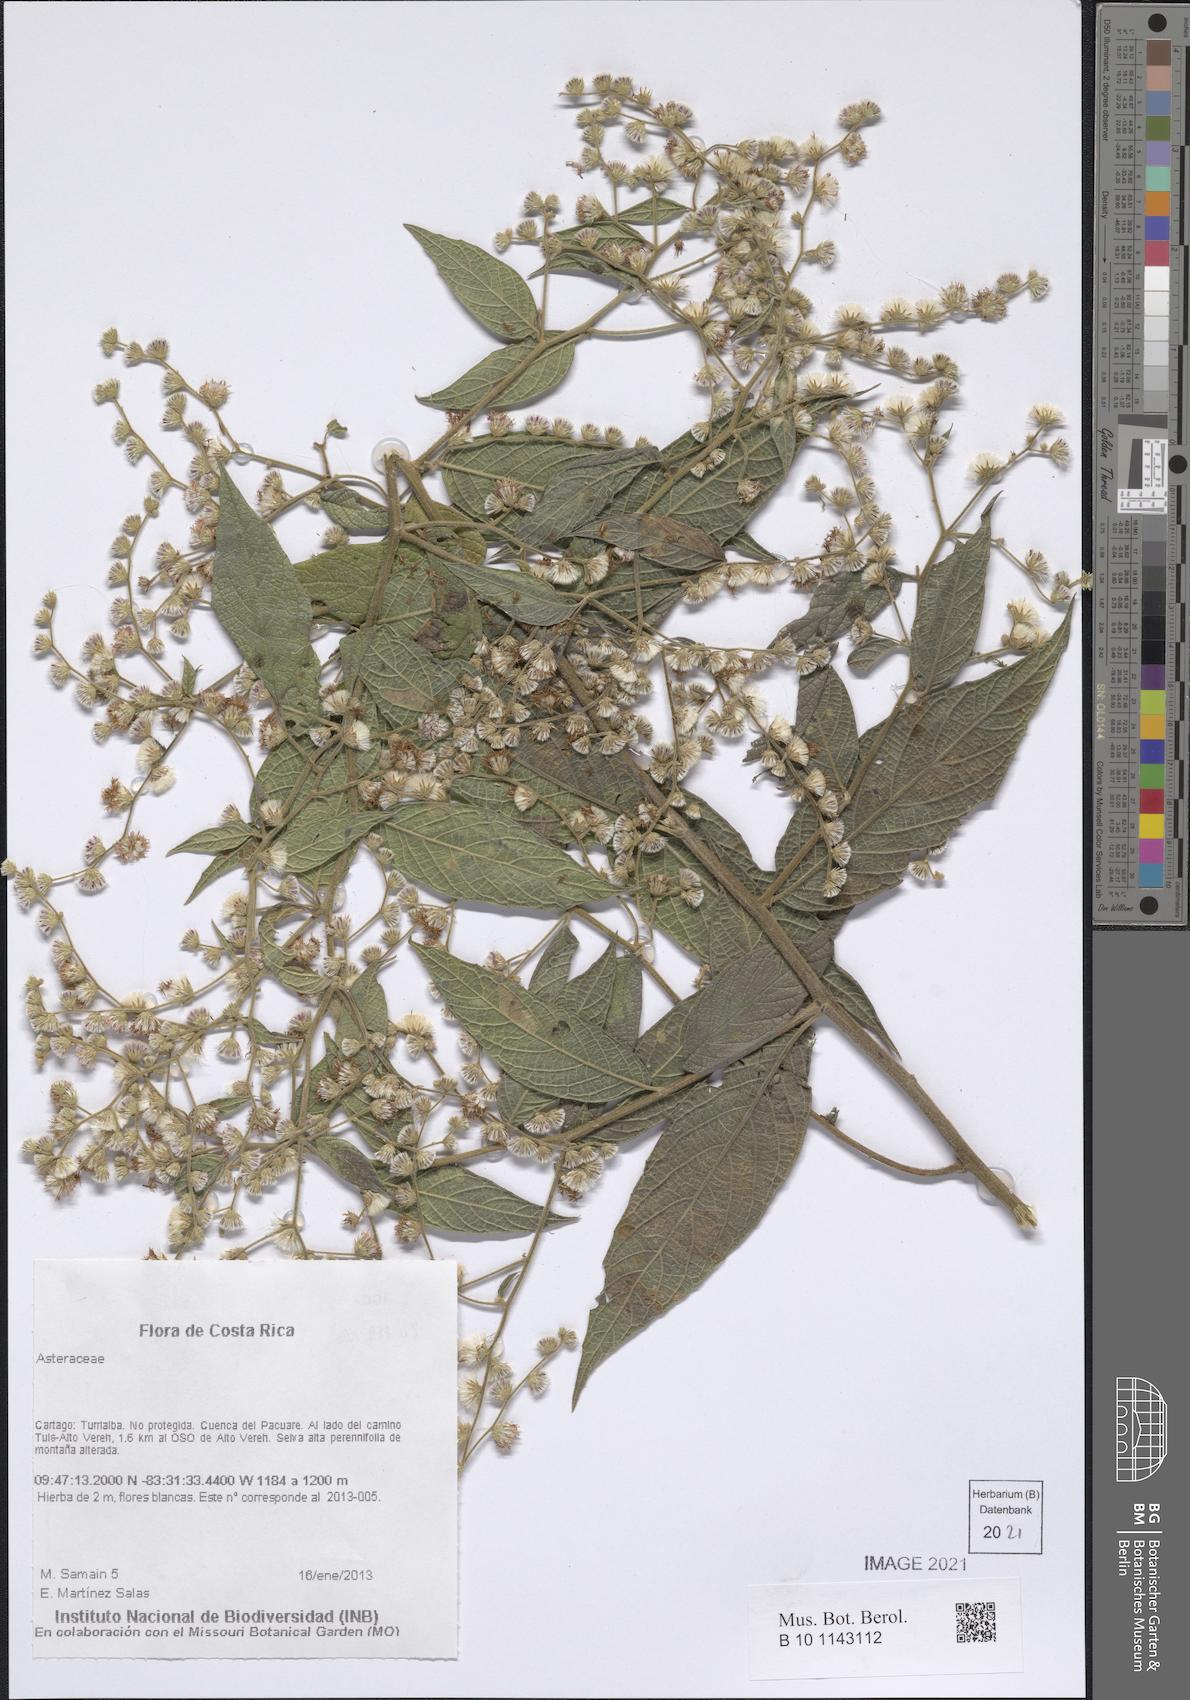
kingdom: Plantae
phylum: Tracheophyta
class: Magnoliopsida
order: Asterales
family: Asteraceae
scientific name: Asteraceae
